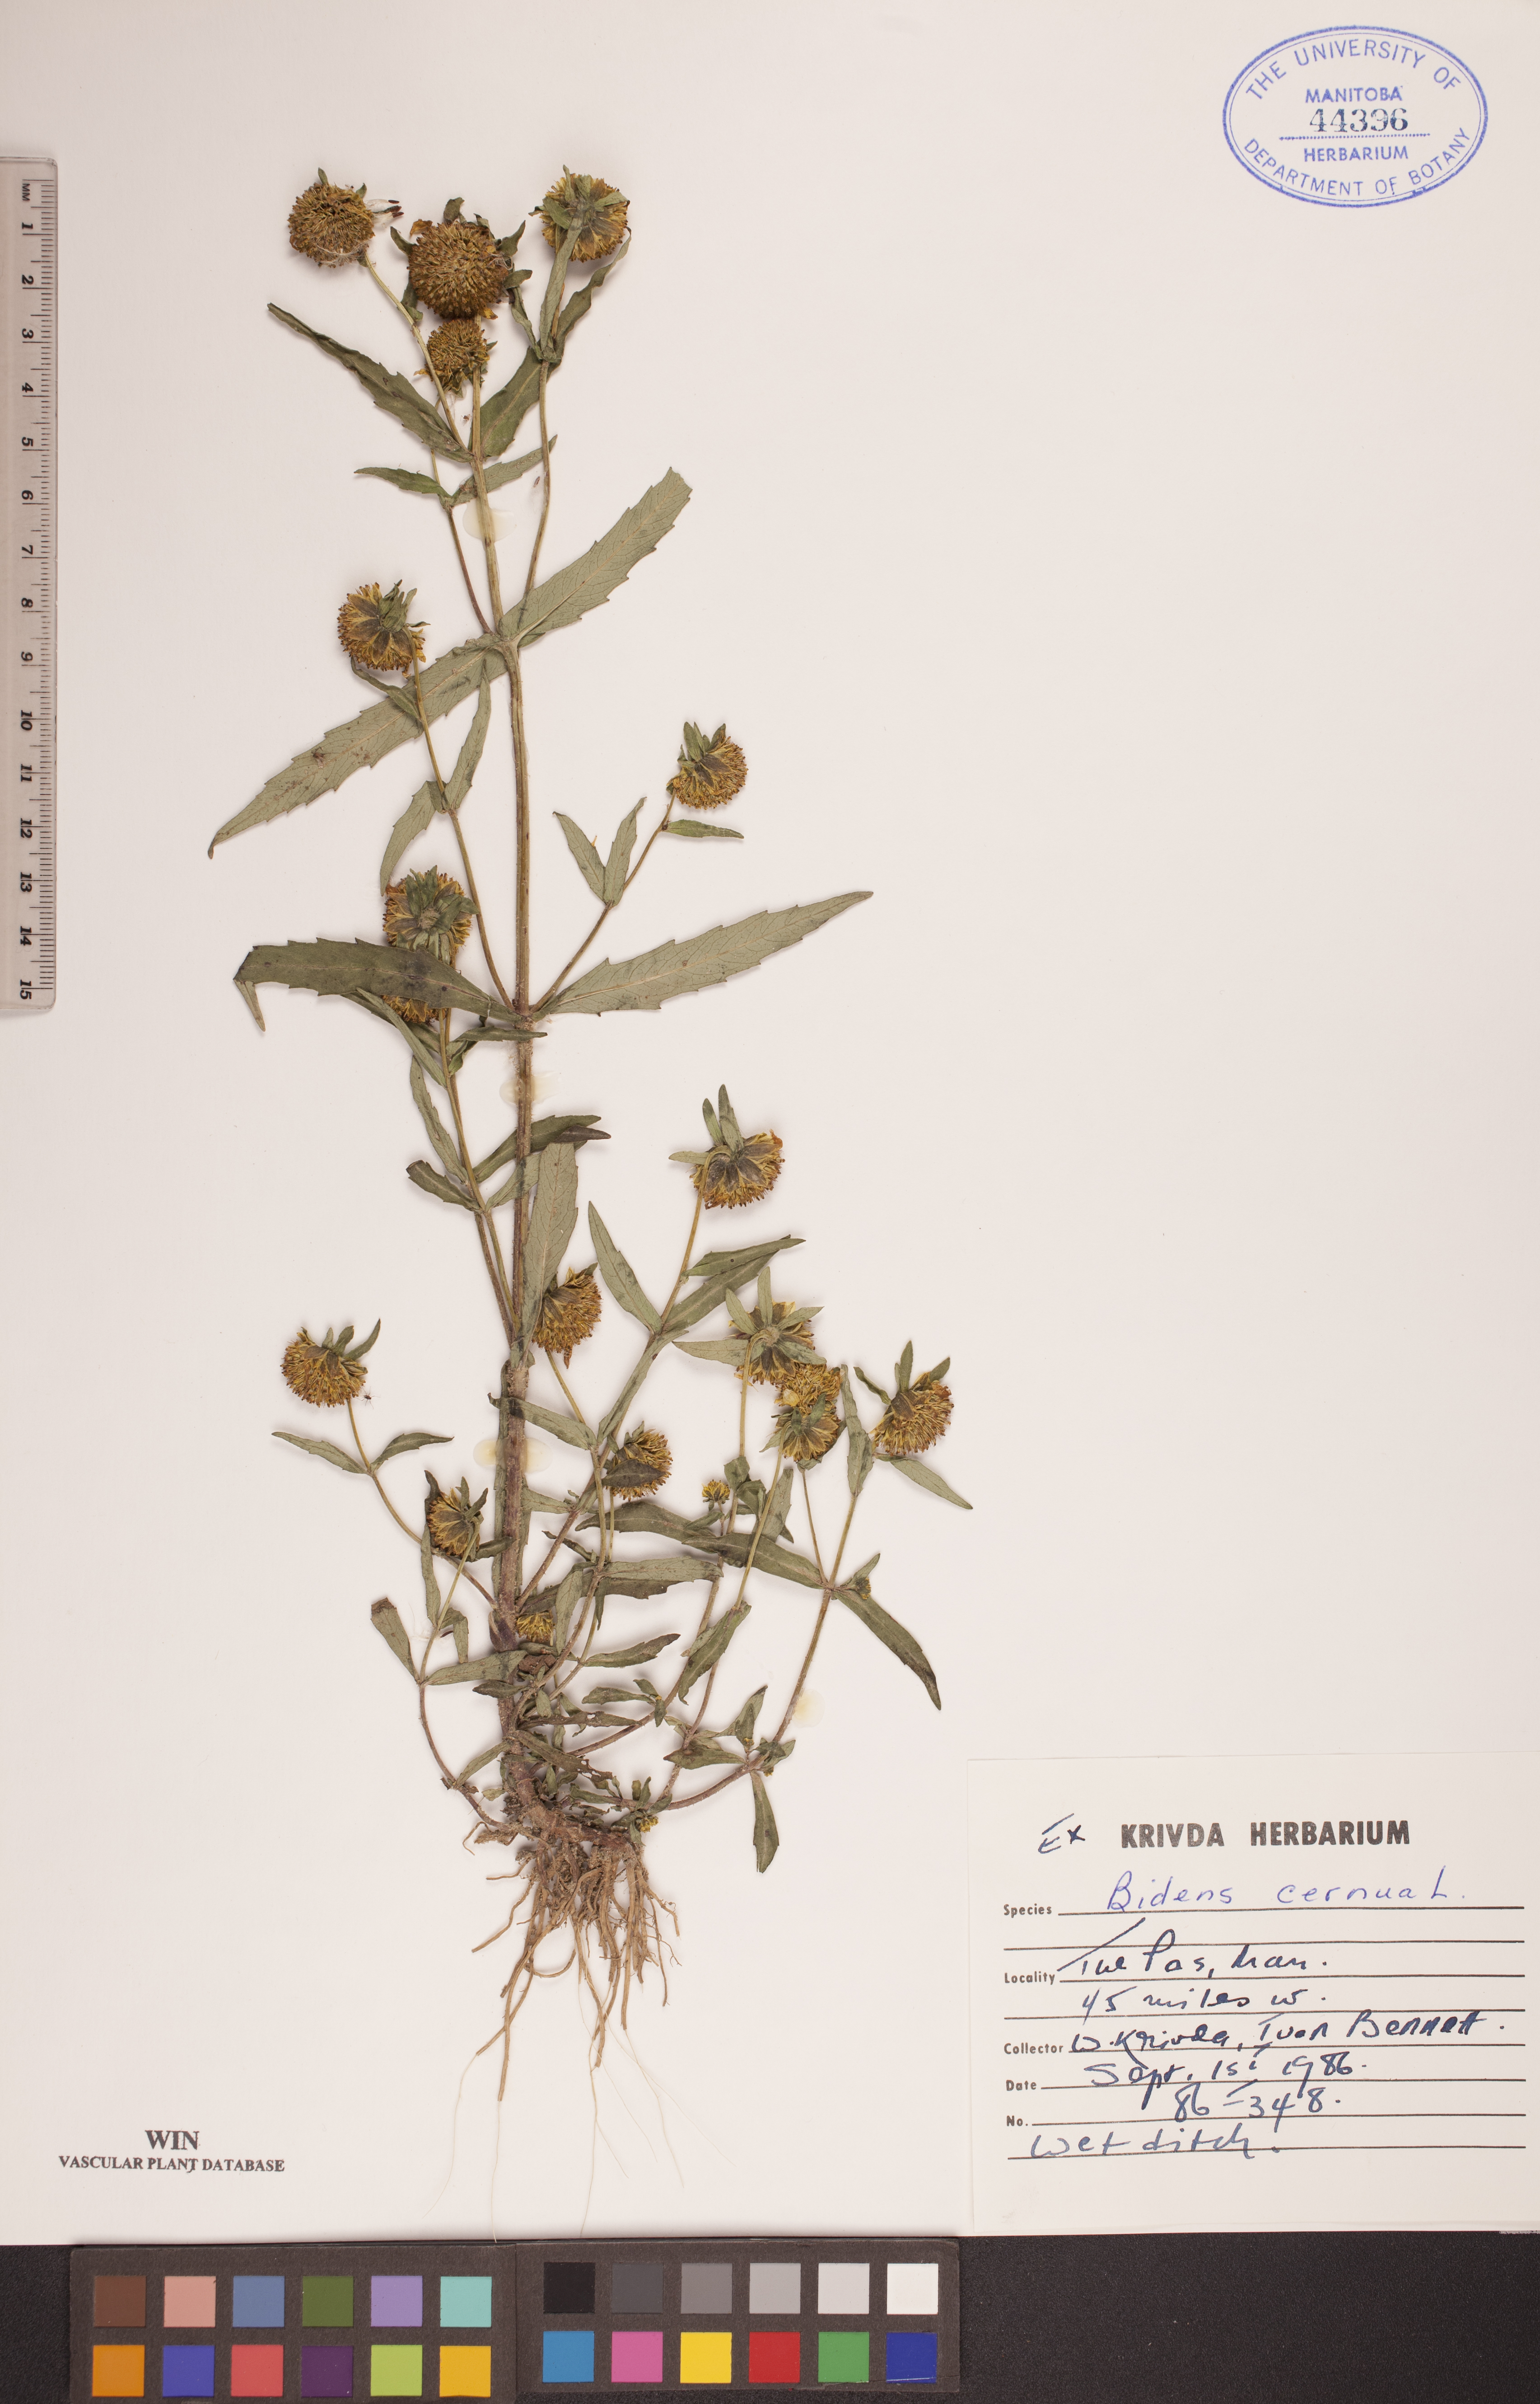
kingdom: Plantae
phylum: Tracheophyta
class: Magnoliopsida
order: Asterales
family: Asteraceae
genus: Bidens
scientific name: Bidens cernua
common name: Nodding bur-marigold
